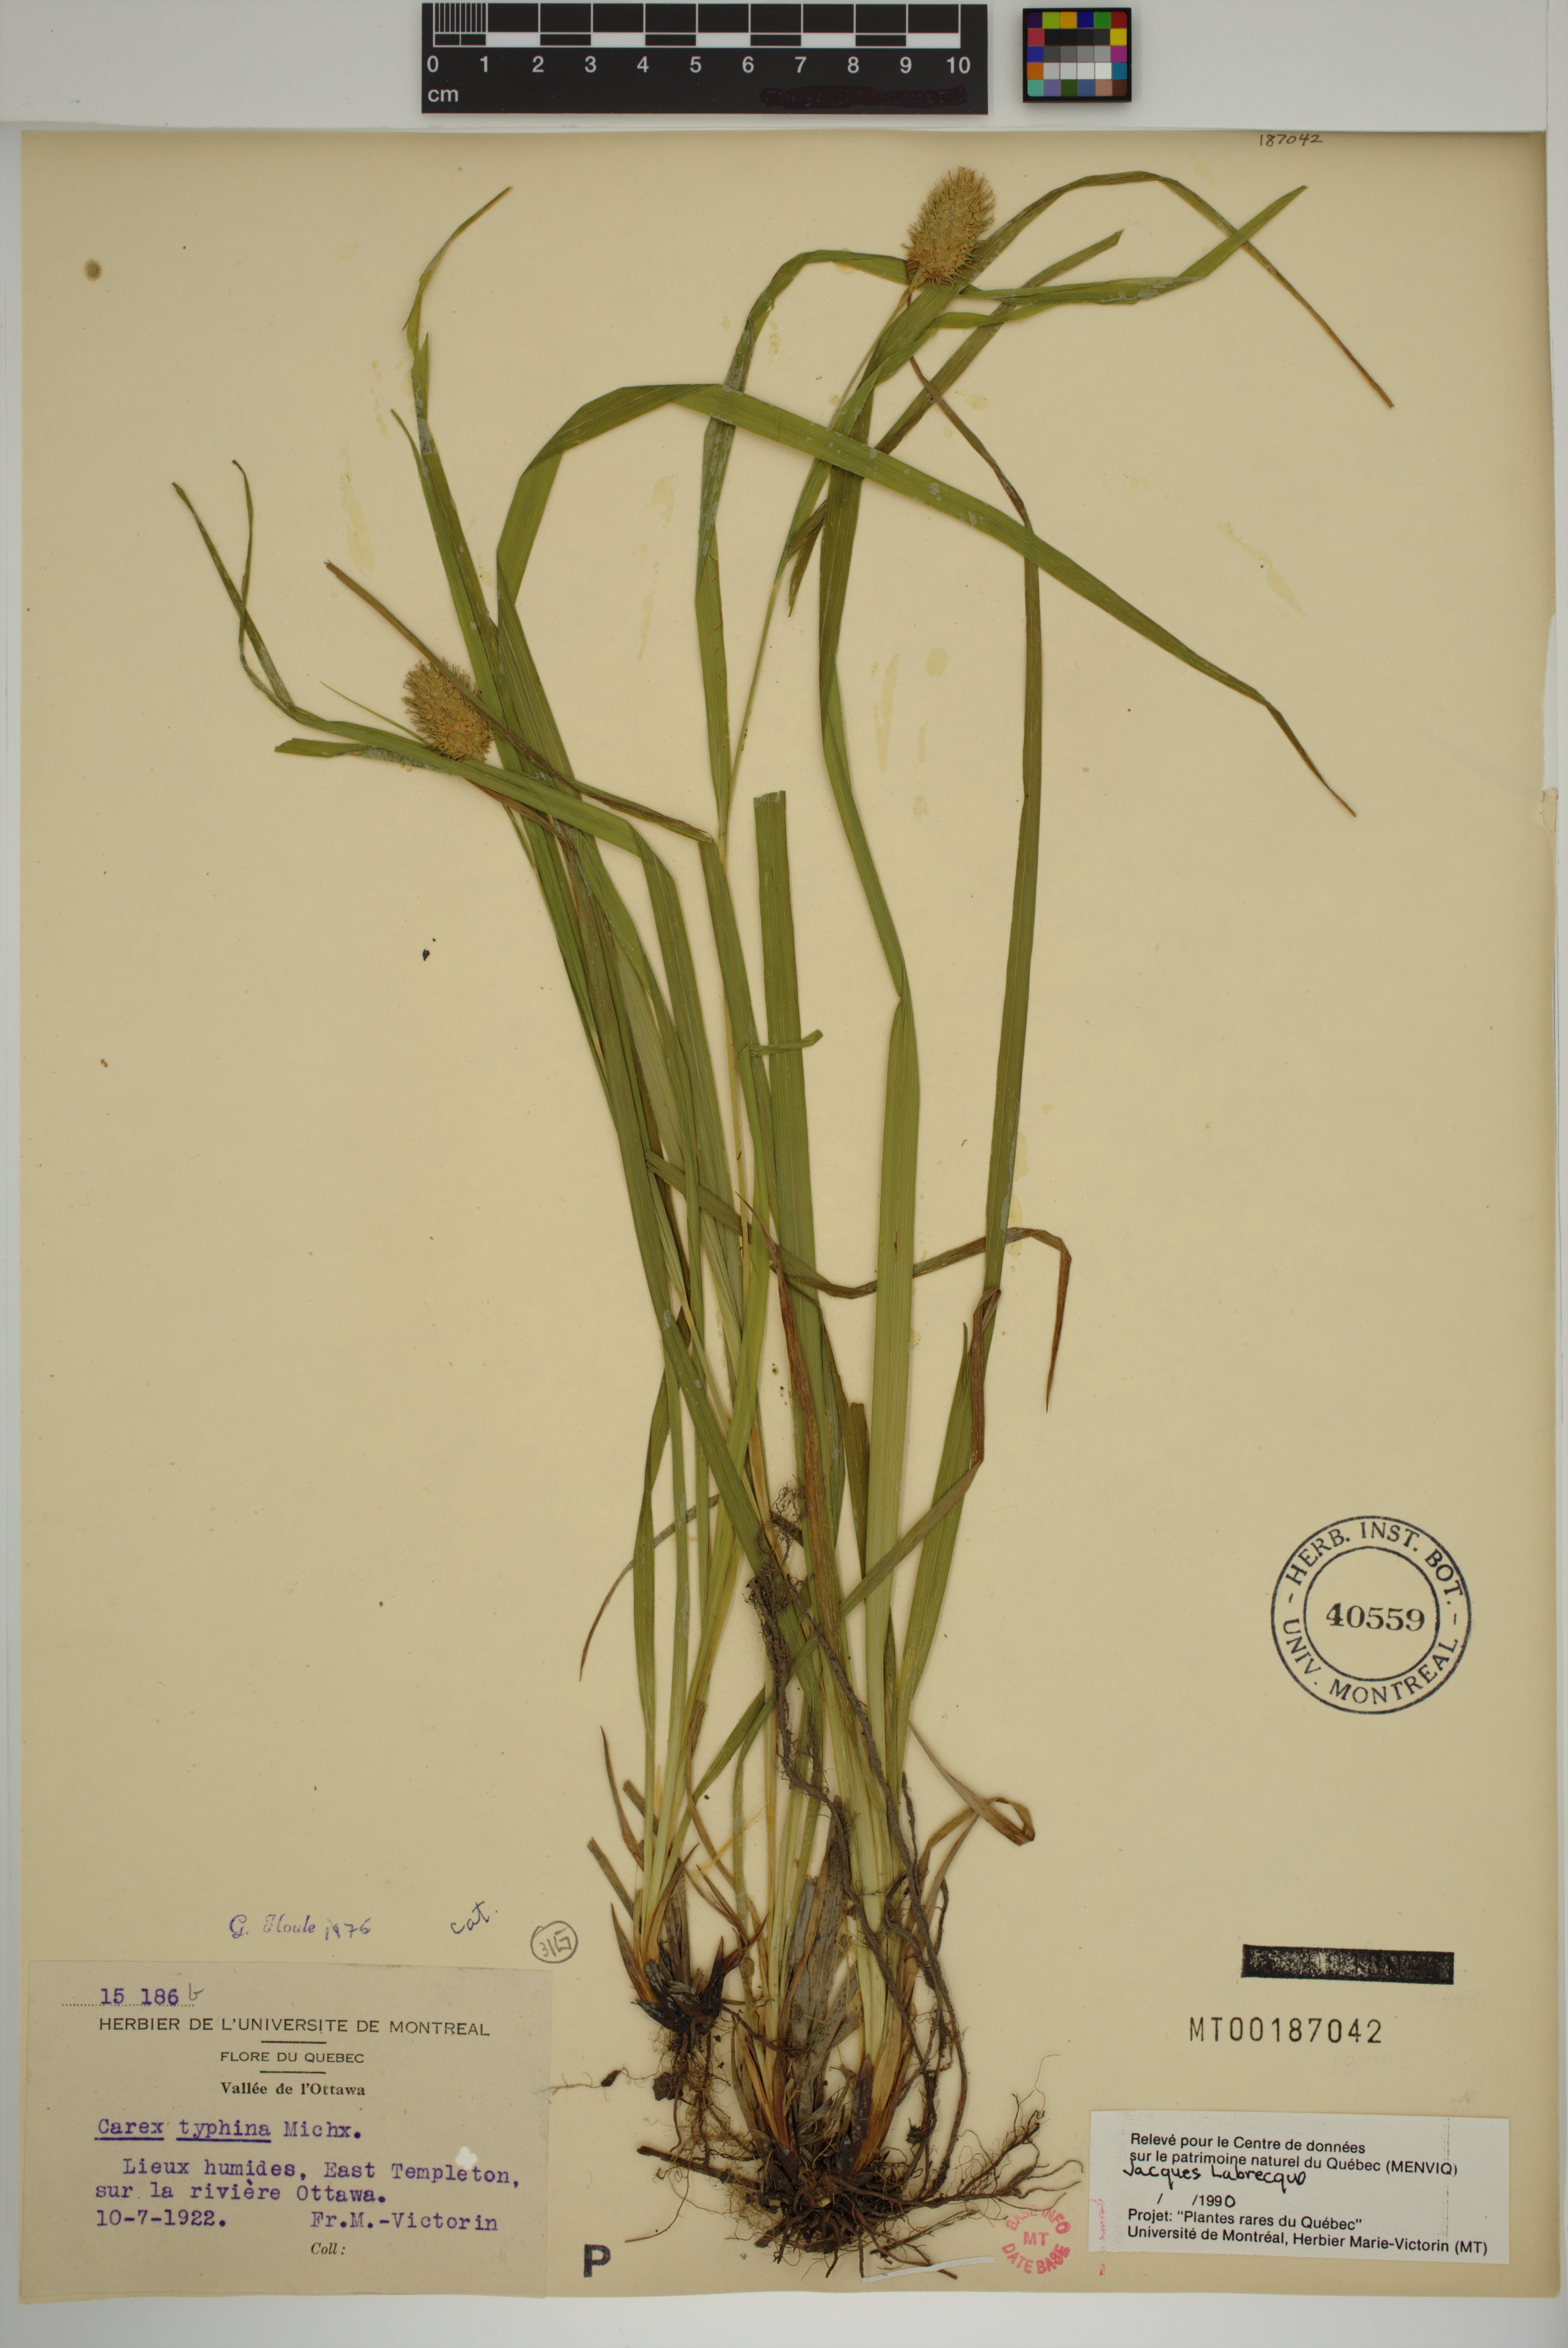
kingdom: Plantae
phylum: Tracheophyta
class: Liliopsida
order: Poales
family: Cyperaceae
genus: Carex
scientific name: Carex typhina
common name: Cattail sedge
